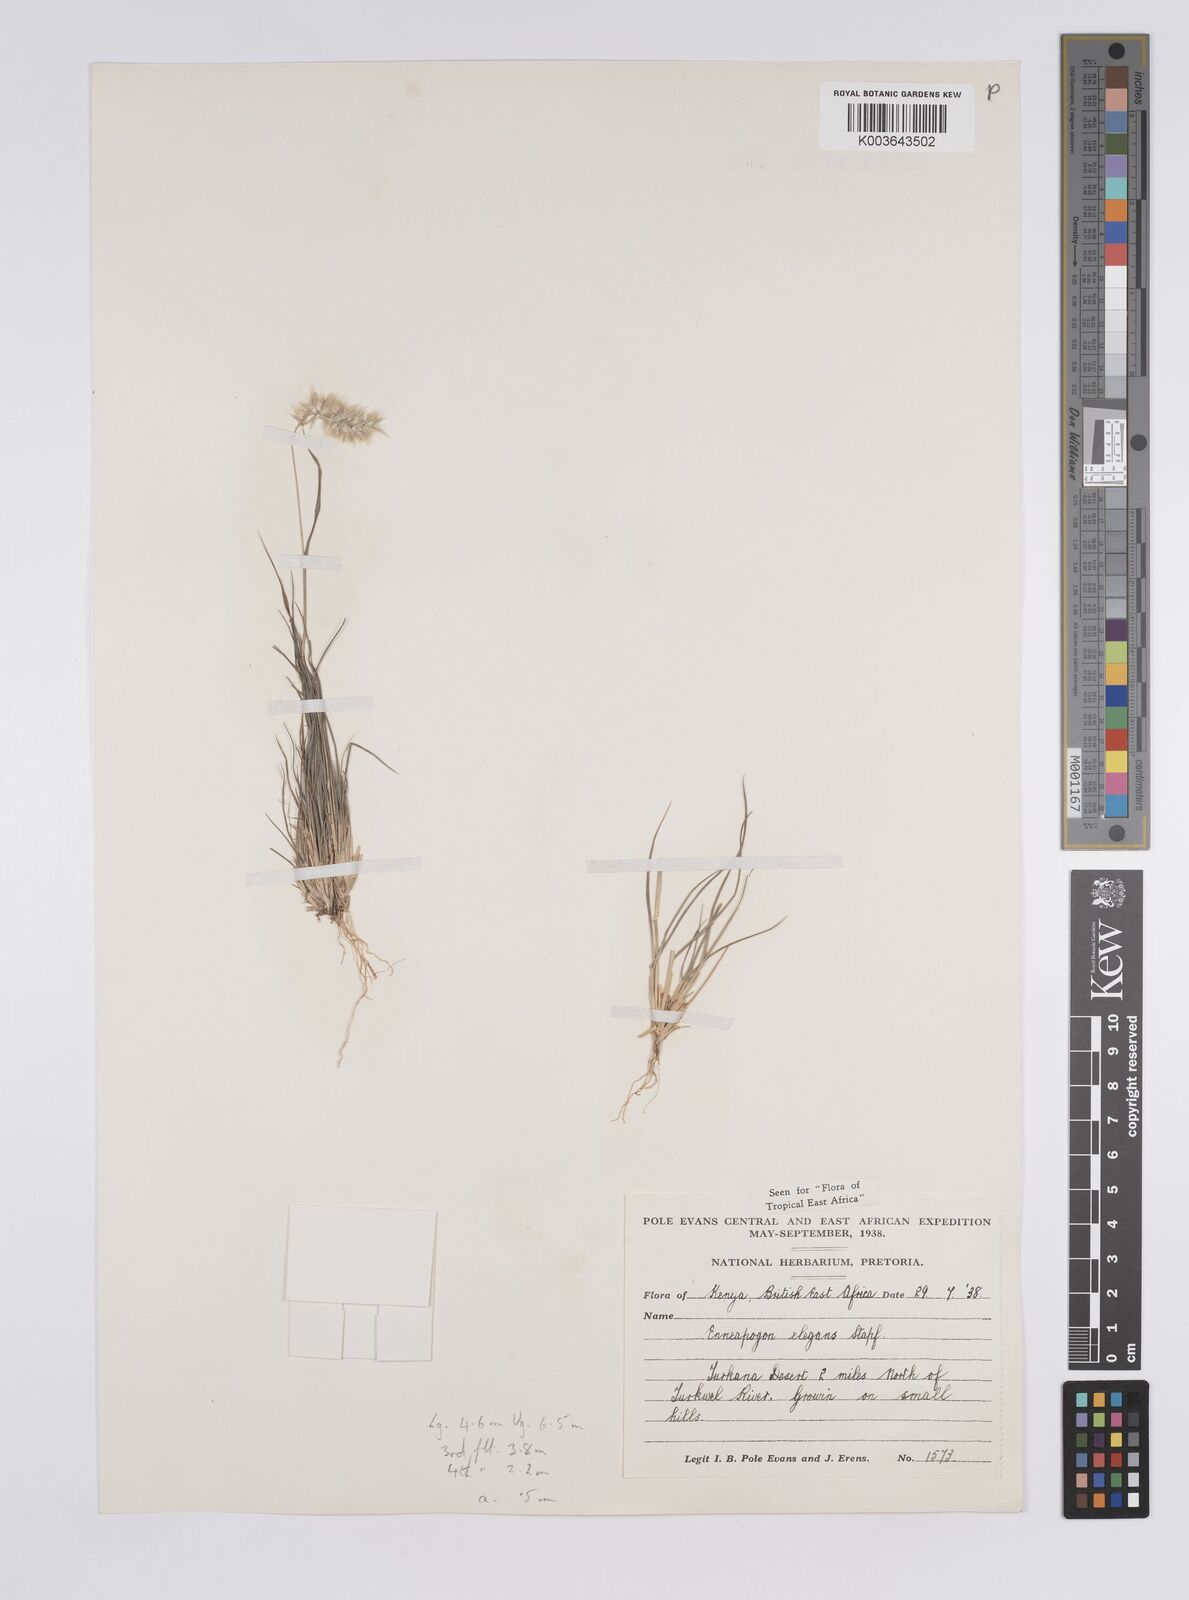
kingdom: Plantae
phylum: Tracheophyta
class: Liliopsida
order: Poales
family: Poaceae
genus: Enneapogon
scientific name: Enneapogon persicus
